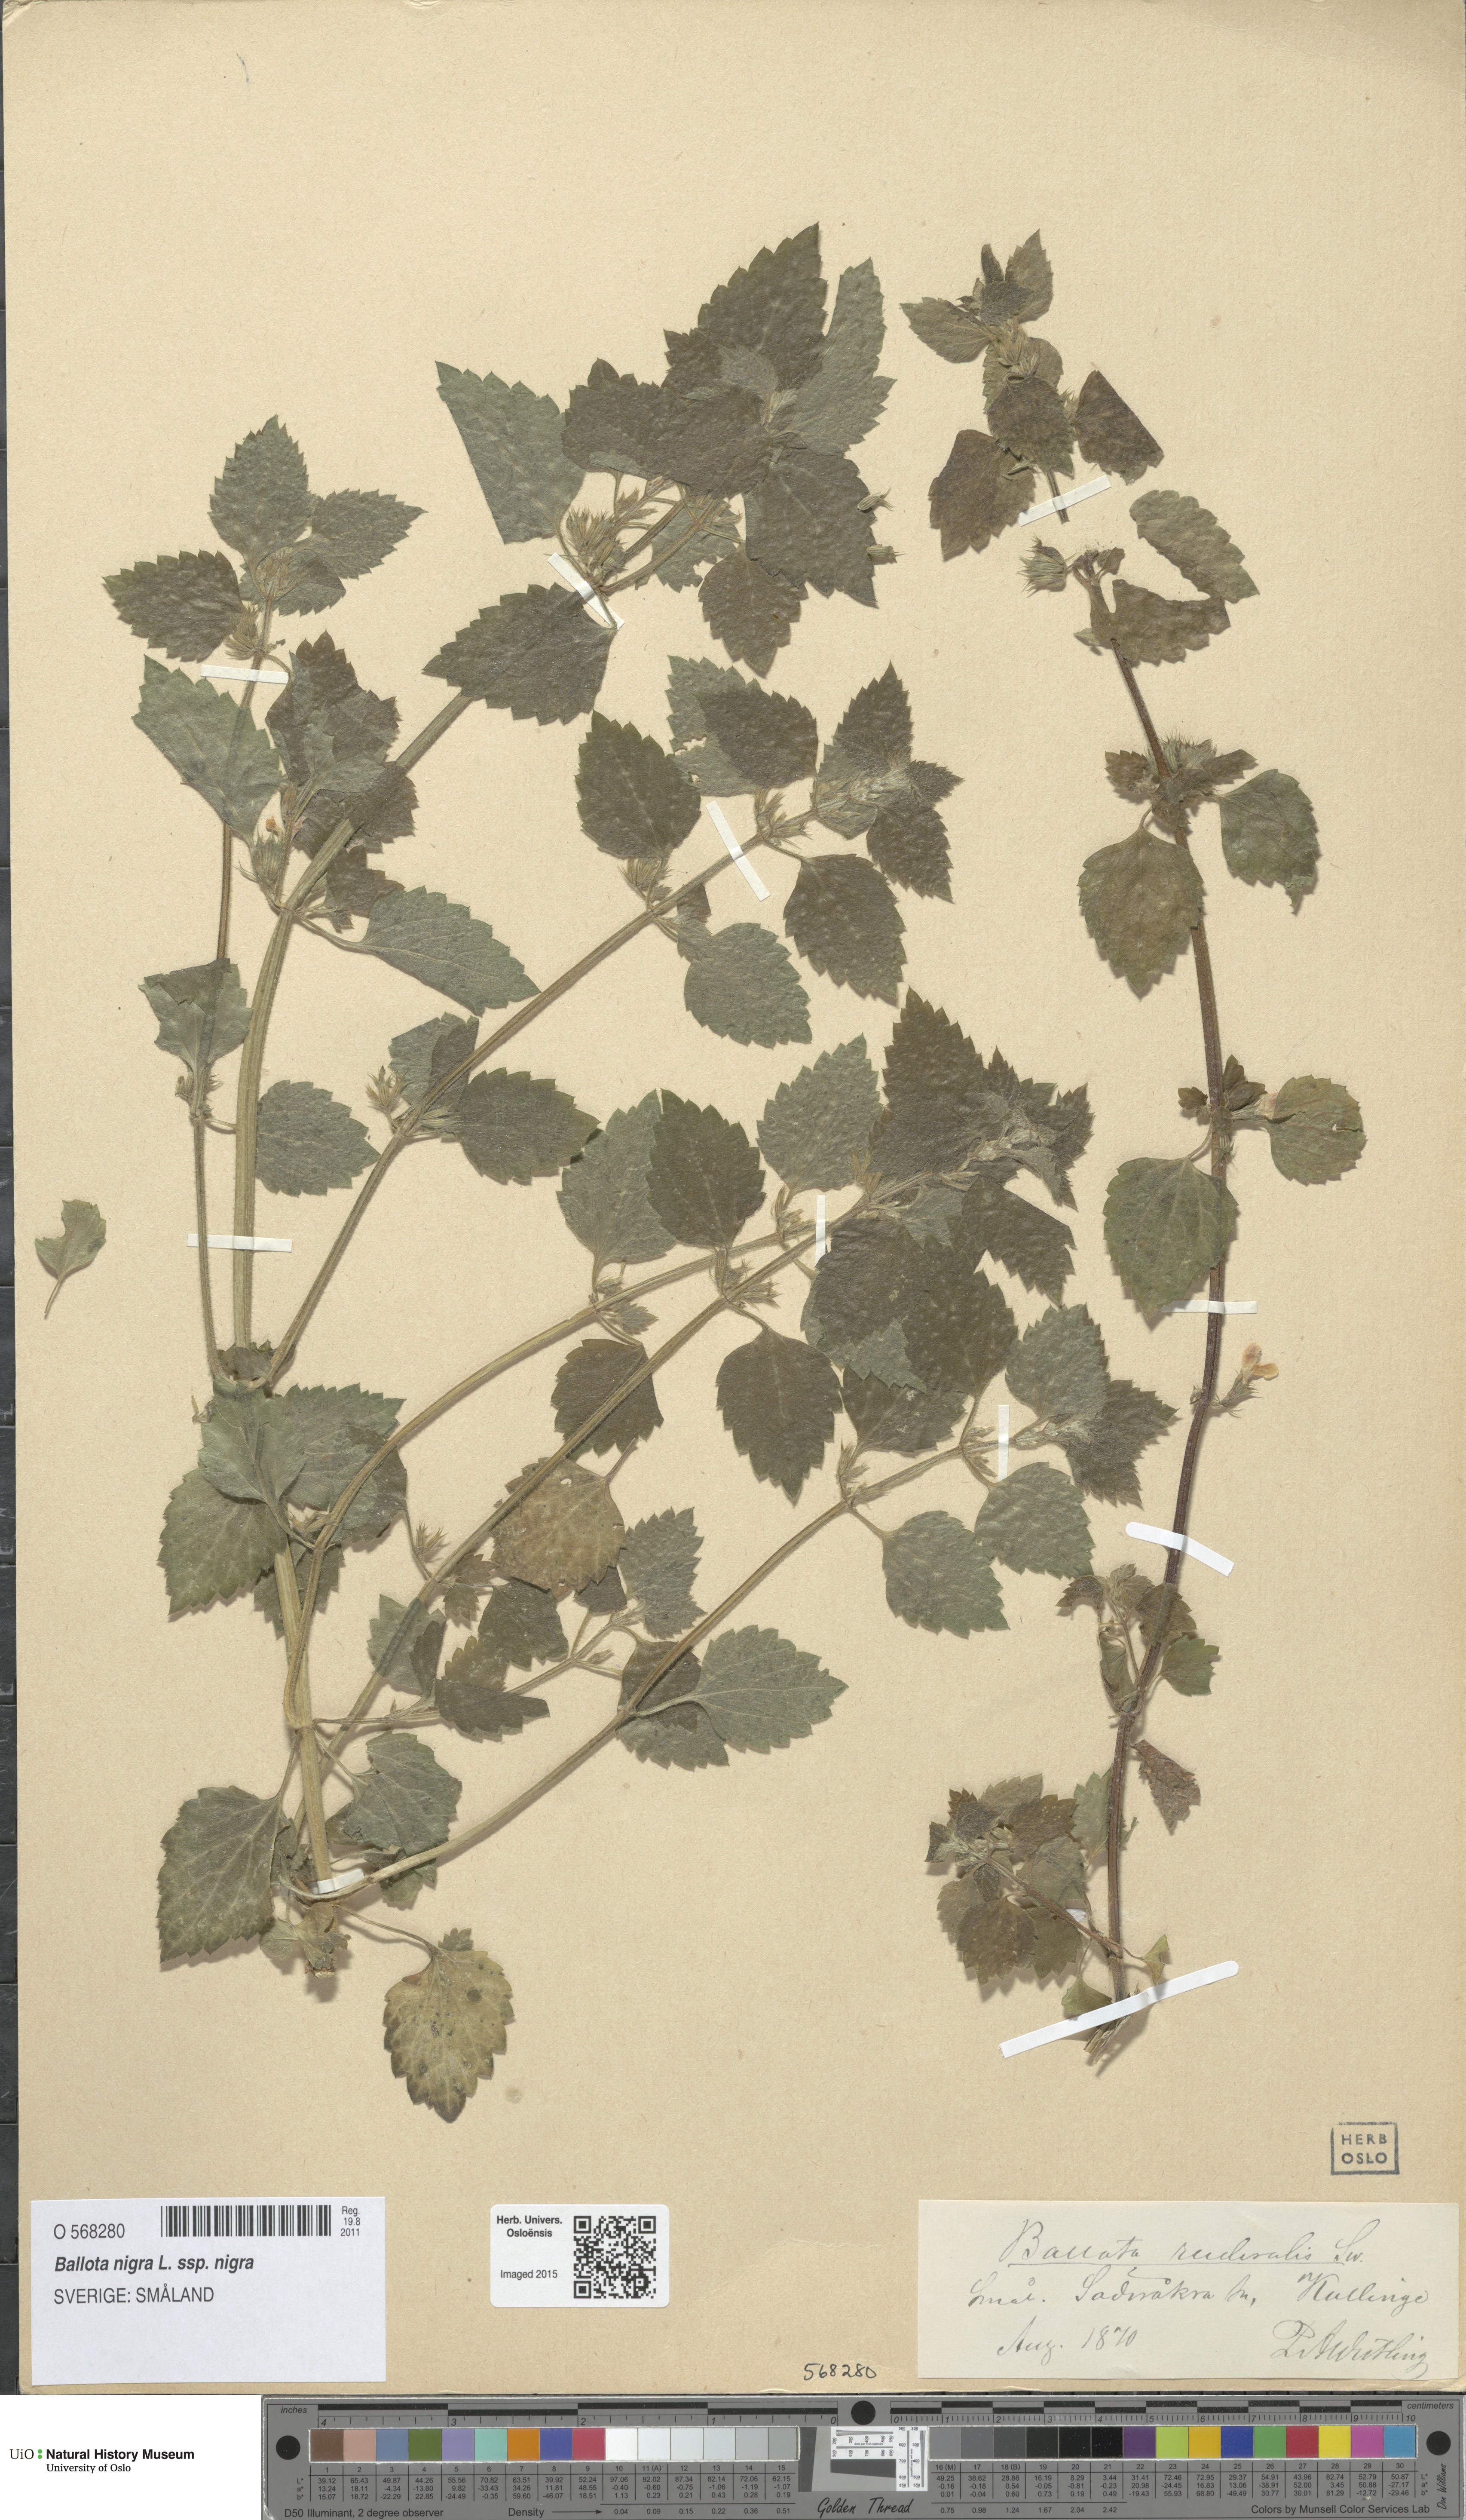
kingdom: Plantae
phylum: Tracheophyta
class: Magnoliopsida
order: Lamiales
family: Lamiaceae
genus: Ballota
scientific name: Ballota nigra
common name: Black horehound
